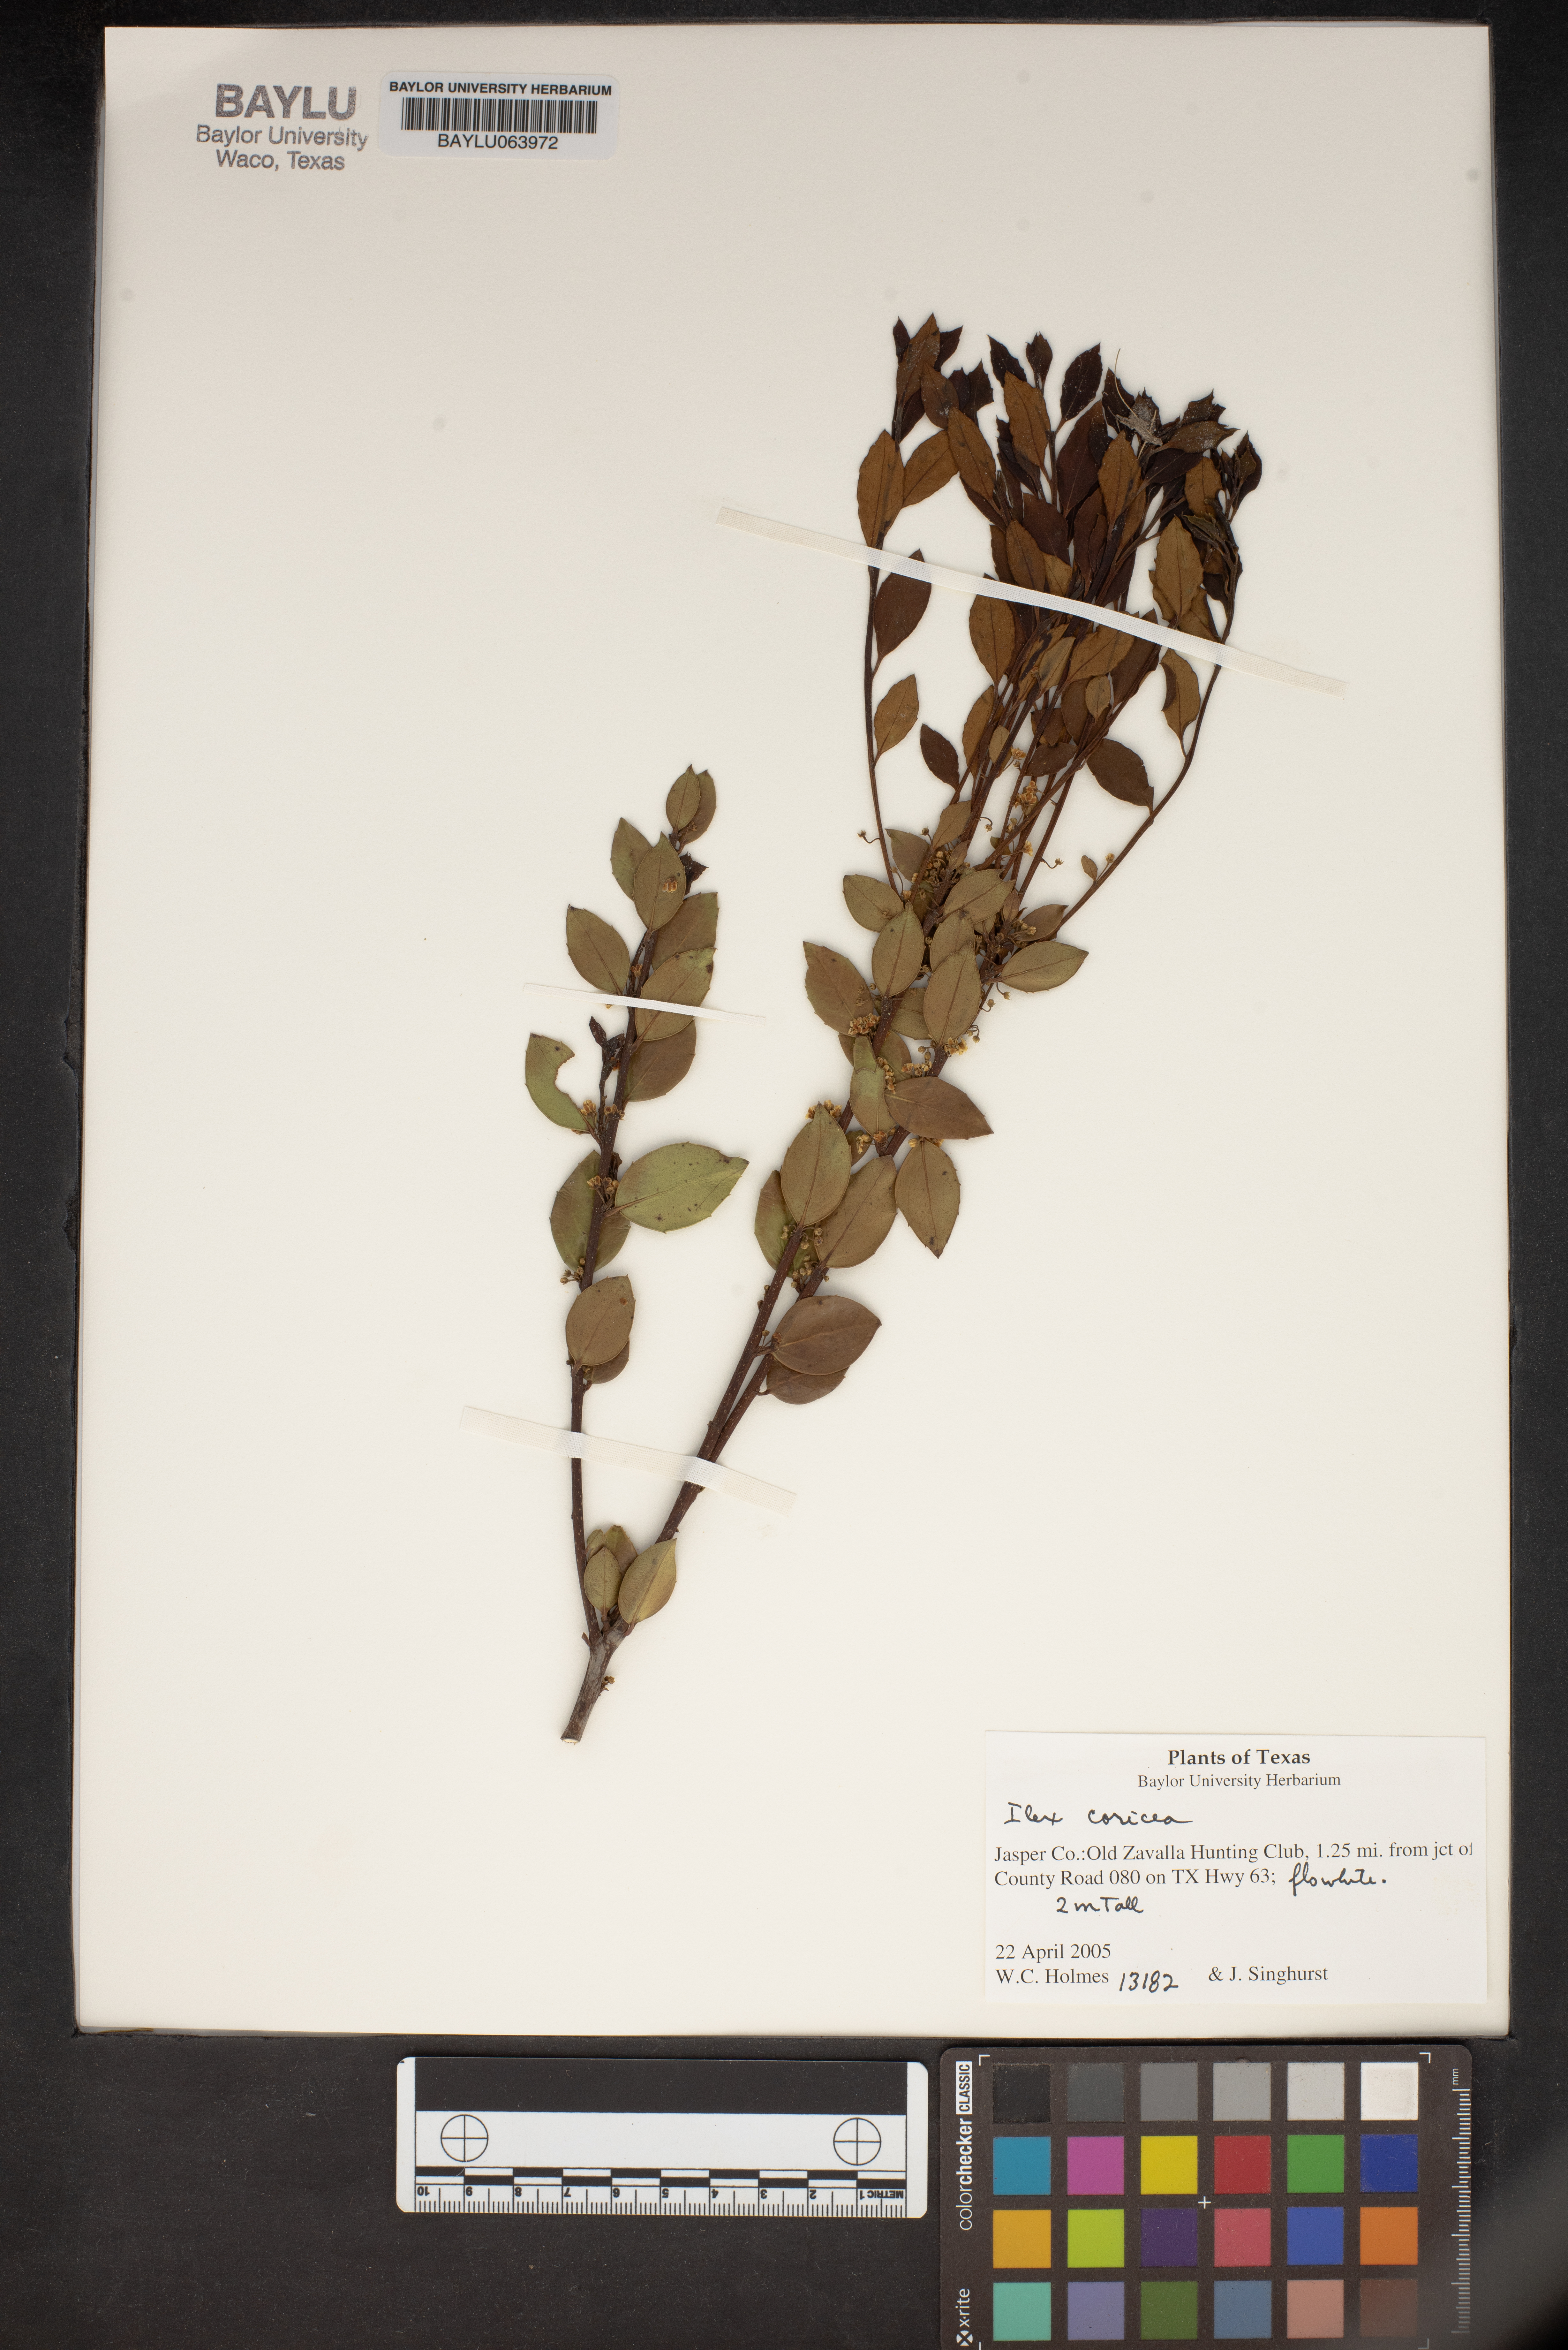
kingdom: Plantae
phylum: Tracheophyta
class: Magnoliopsida
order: Aquifoliales
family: Aquifoliaceae
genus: Ilex
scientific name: Ilex coriacea
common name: Sweet gallberry
